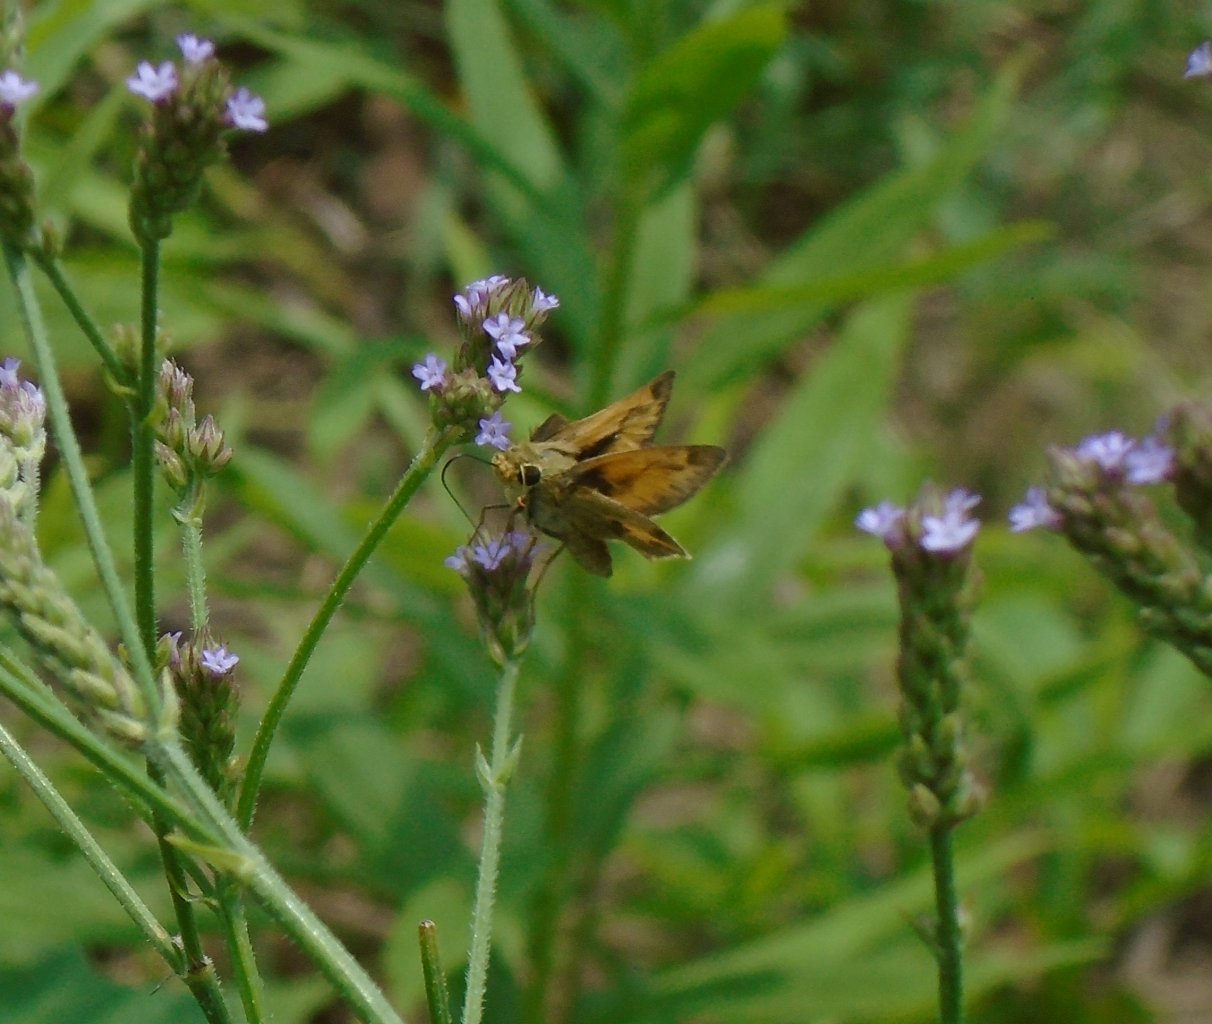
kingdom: Animalia
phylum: Arthropoda
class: Insecta
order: Lepidoptera
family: Hesperiidae
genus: Polites
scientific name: Polites vibex
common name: Whirlabout
